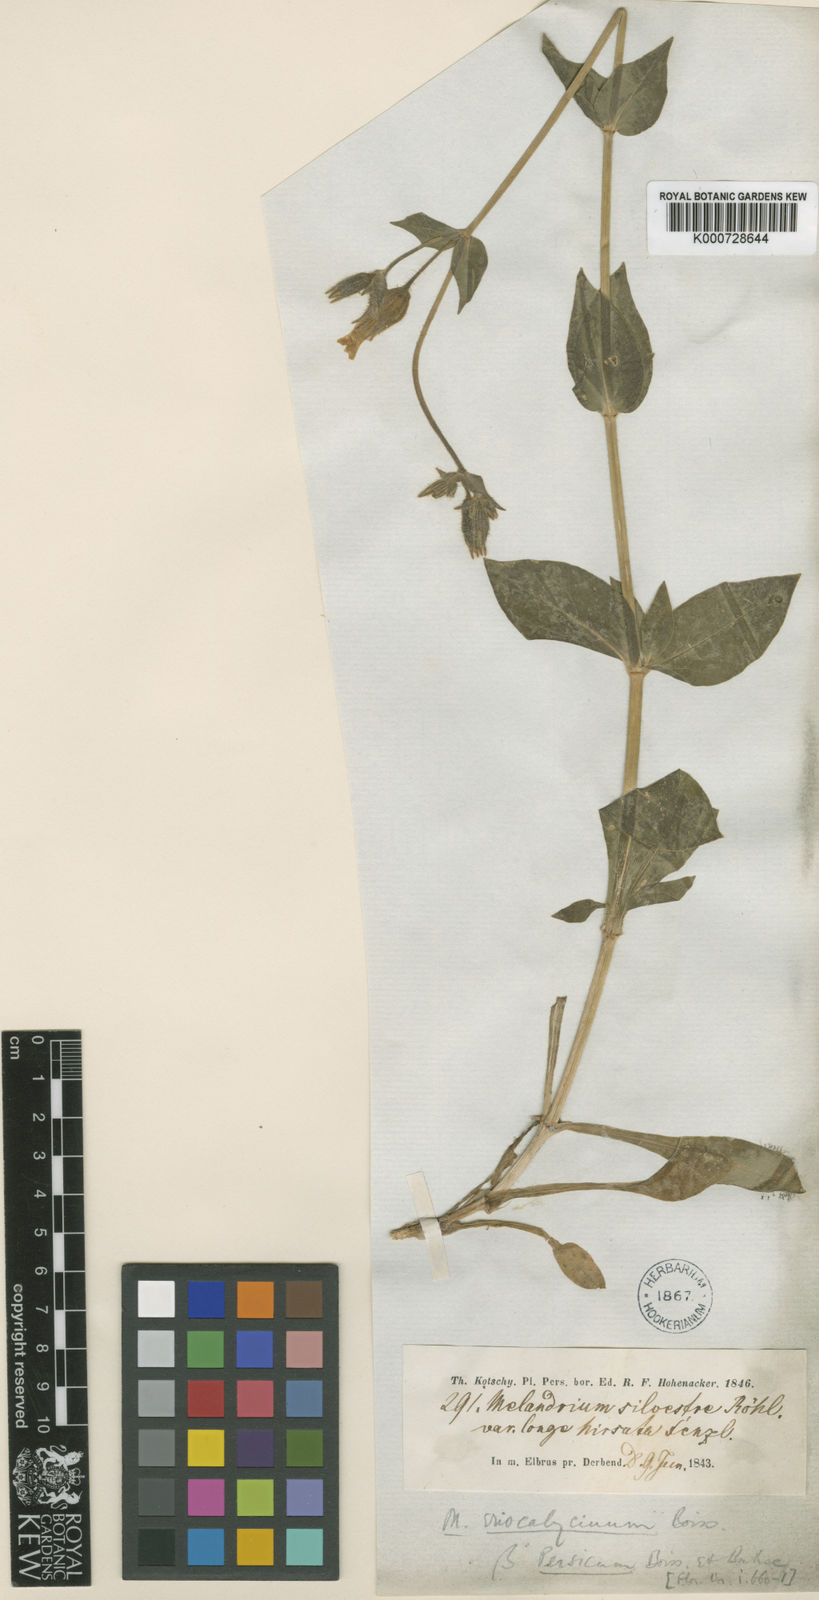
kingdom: Plantae
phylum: Tracheophyta
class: Magnoliopsida
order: Caryophyllales
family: Caryophyllaceae
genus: Silene
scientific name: Silene latifolia
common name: White campion
